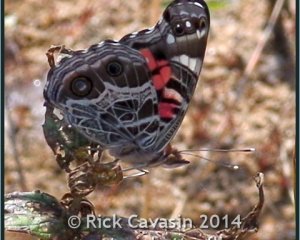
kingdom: Animalia
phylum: Arthropoda
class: Insecta
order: Lepidoptera
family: Nymphalidae
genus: Vanessa
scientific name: Vanessa virginiensis
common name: American Lady
